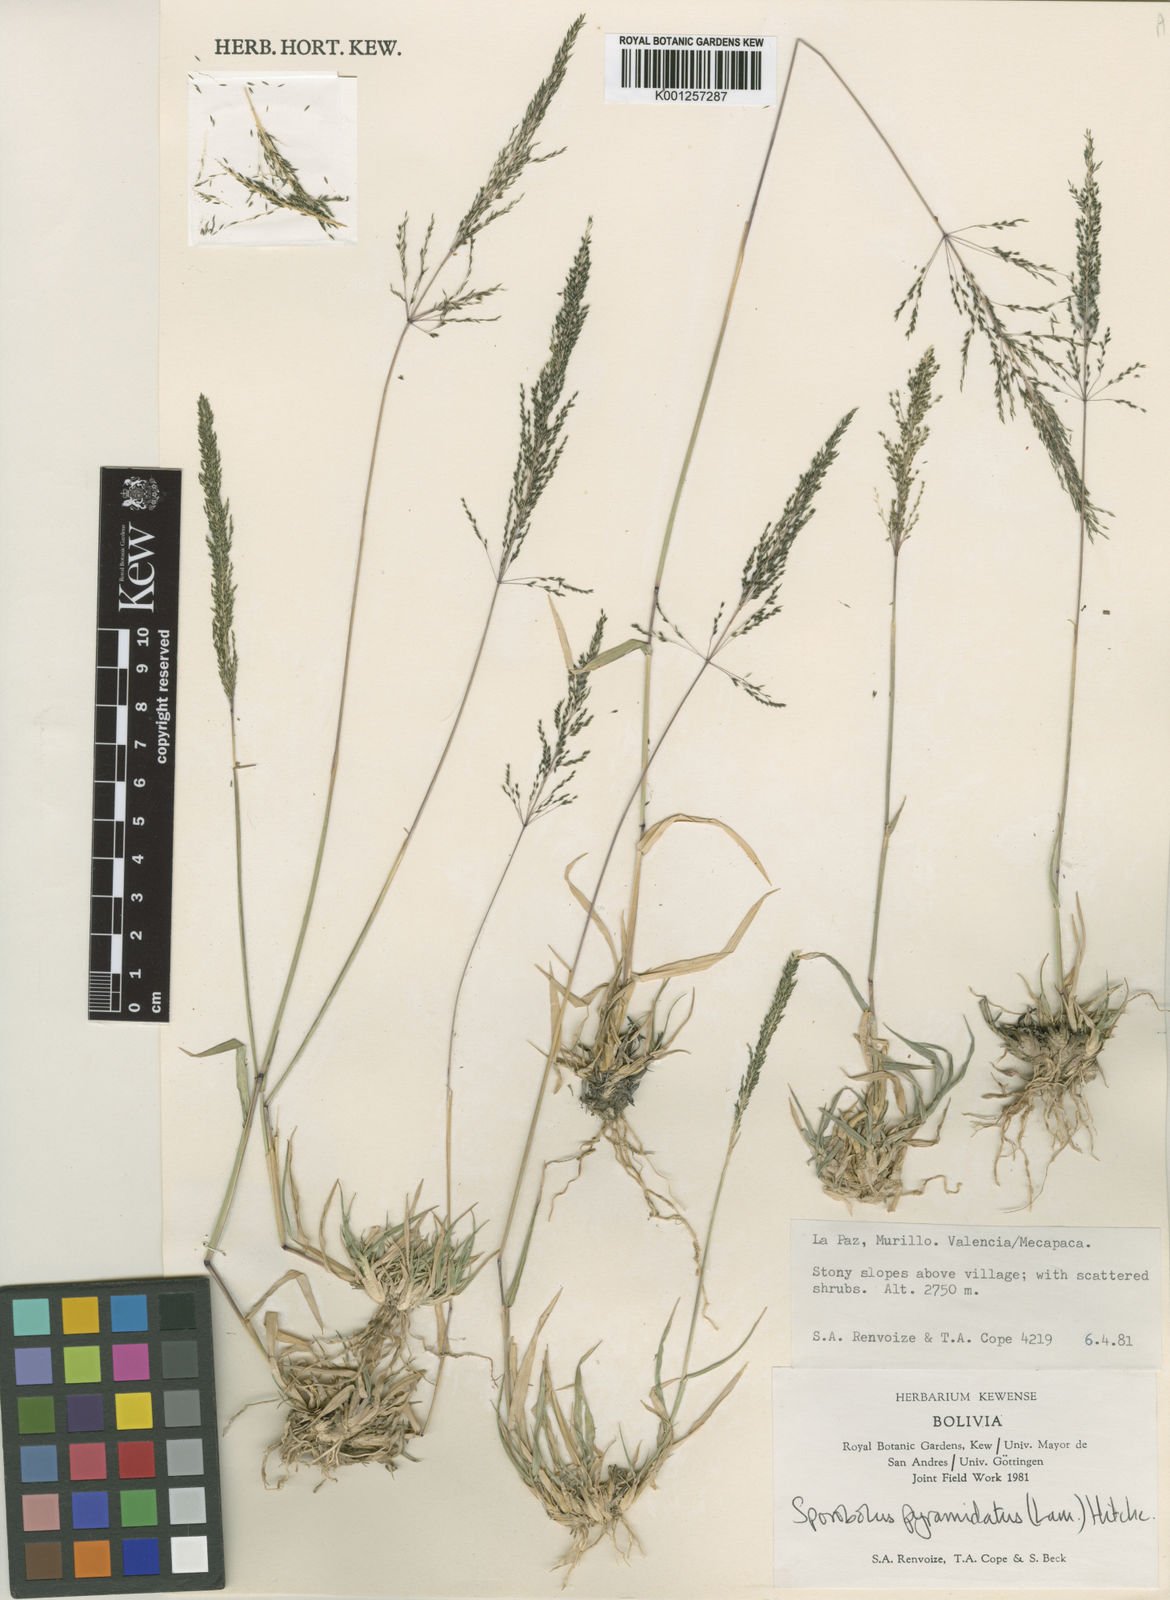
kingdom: Plantae
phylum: Tracheophyta
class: Liliopsida
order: Poales
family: Poaceae
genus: Sporobolus
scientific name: Sporobolus pyramidatus
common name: Whorled dropseed
